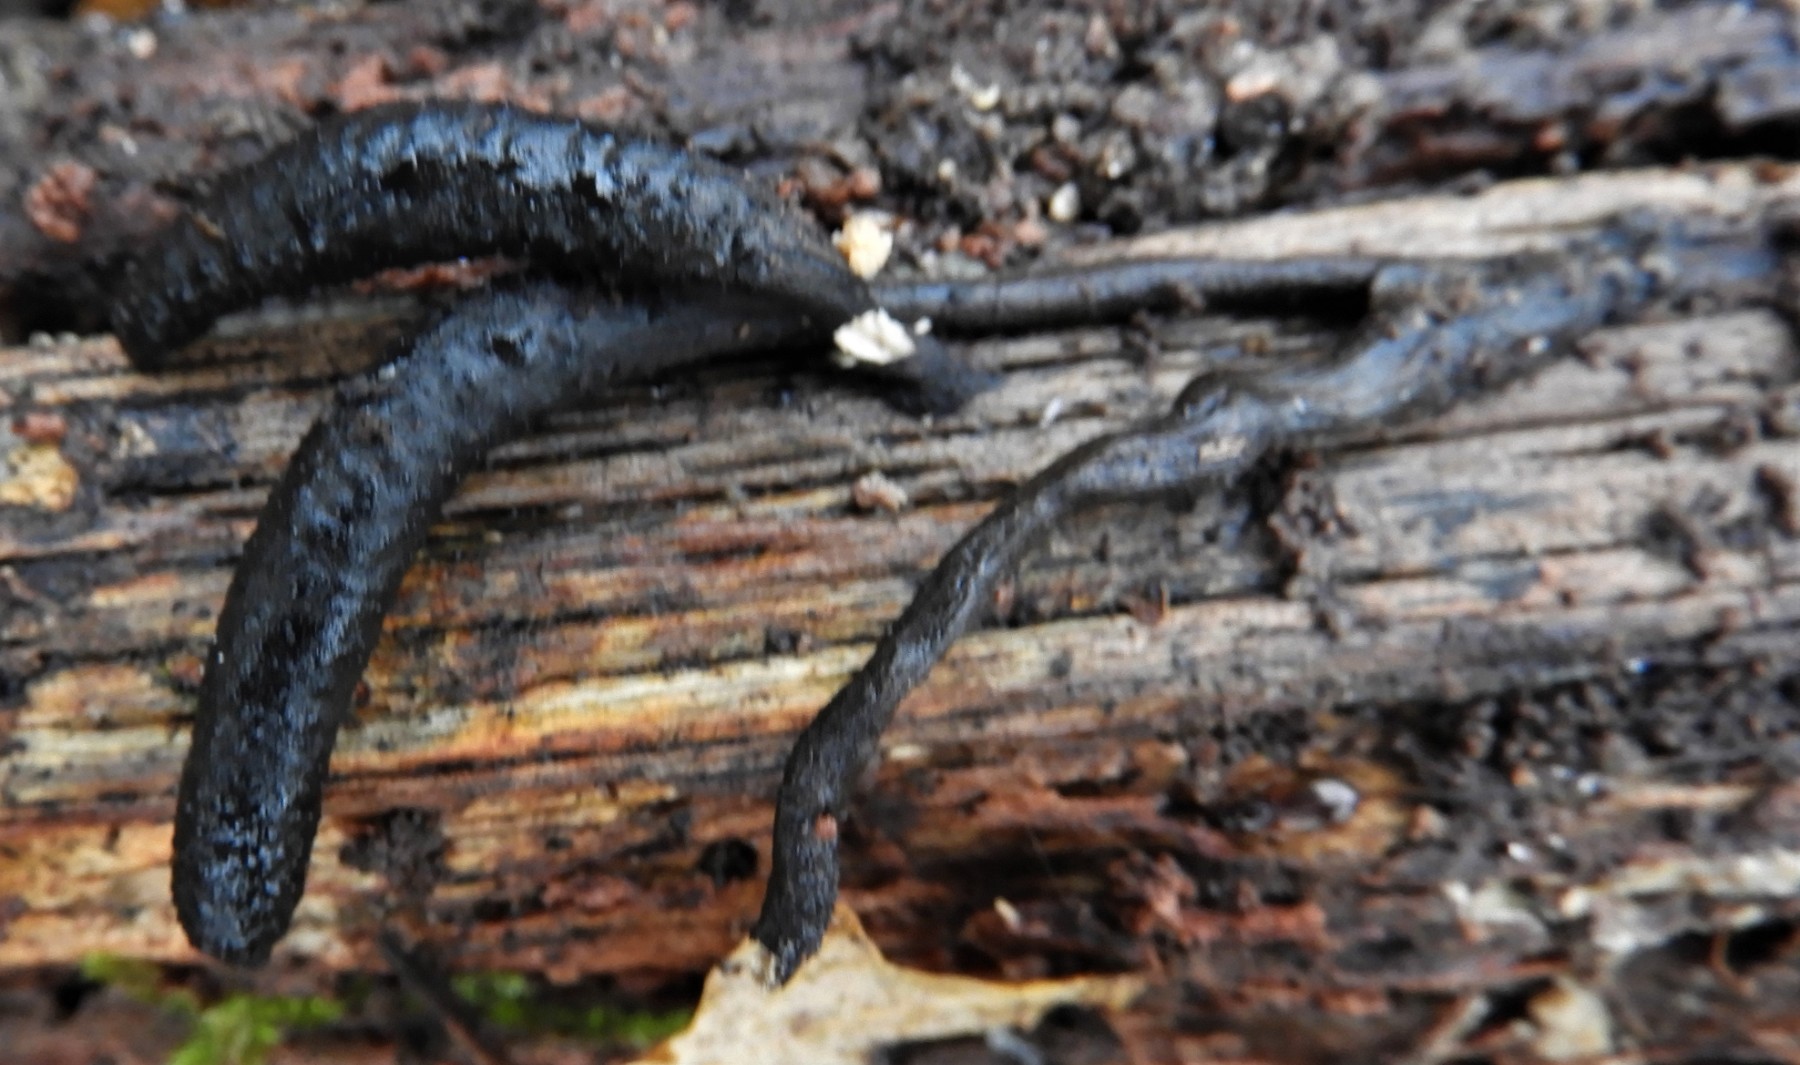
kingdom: Fungi
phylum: Ascomycota
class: Sordariomycetes
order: Xylariales
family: Xylariaceae
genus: Xylaria
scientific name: Xylaria longipes
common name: slank stødsvamp
